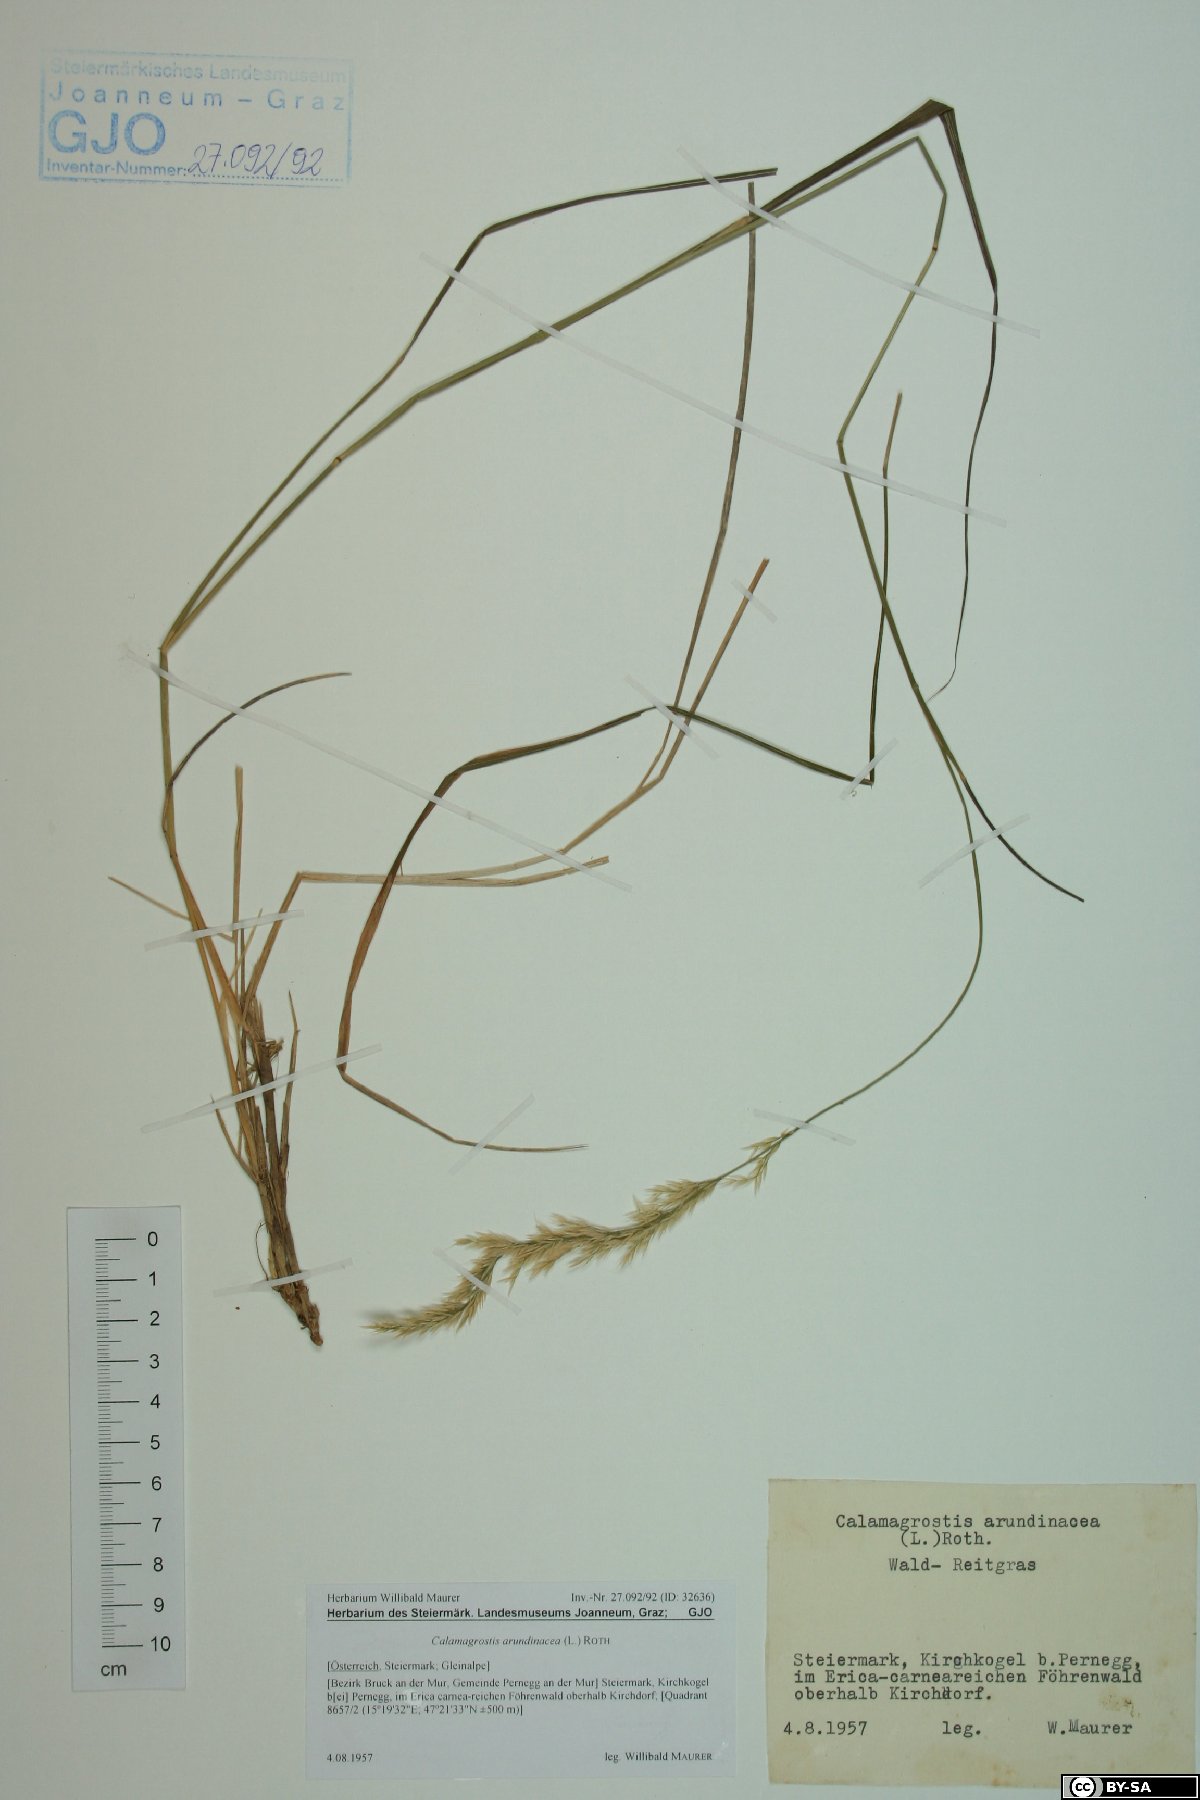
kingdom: Plantae
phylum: Tracheophyta
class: Liliopsida
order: Poales
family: Poaceae
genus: Calamagrostis
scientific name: Calamagrostis arundinacea
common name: Metskastik
